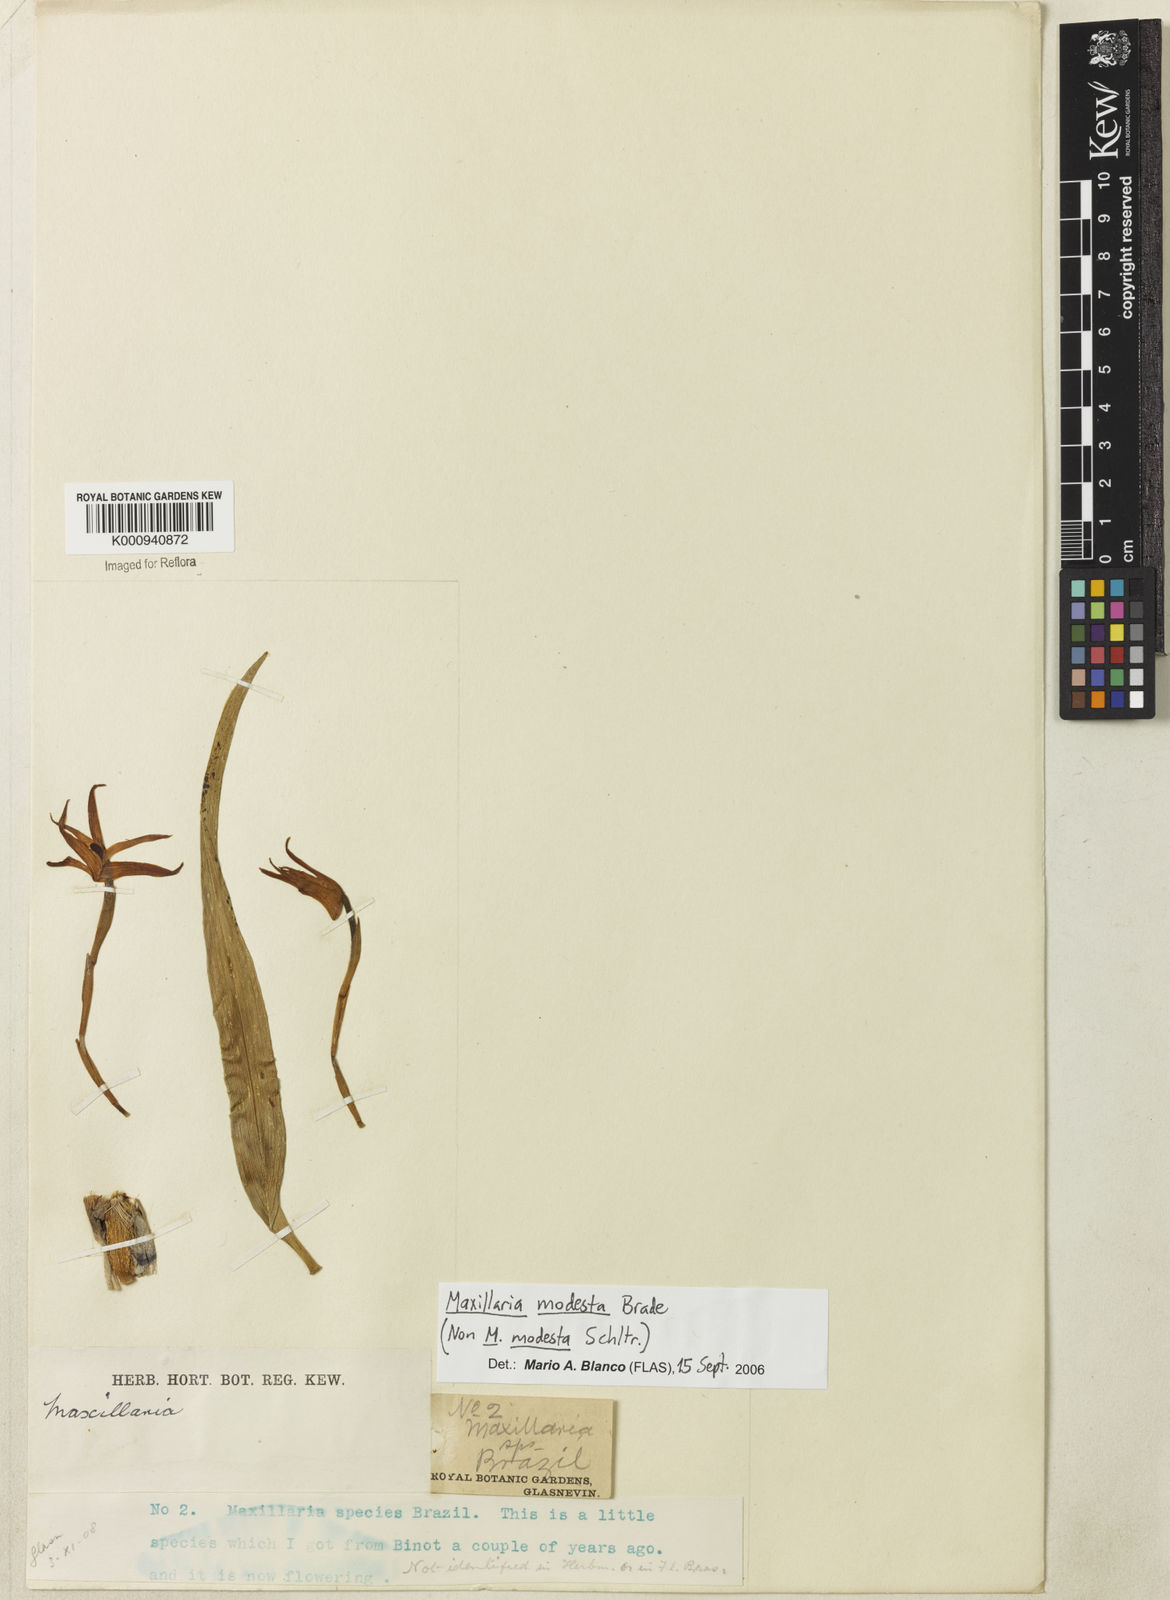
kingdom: Plantae
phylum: Tracheophyta
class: Liliopsida
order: Asparagales
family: Orchidaceae
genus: Maxillaria
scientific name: Maxillaria
